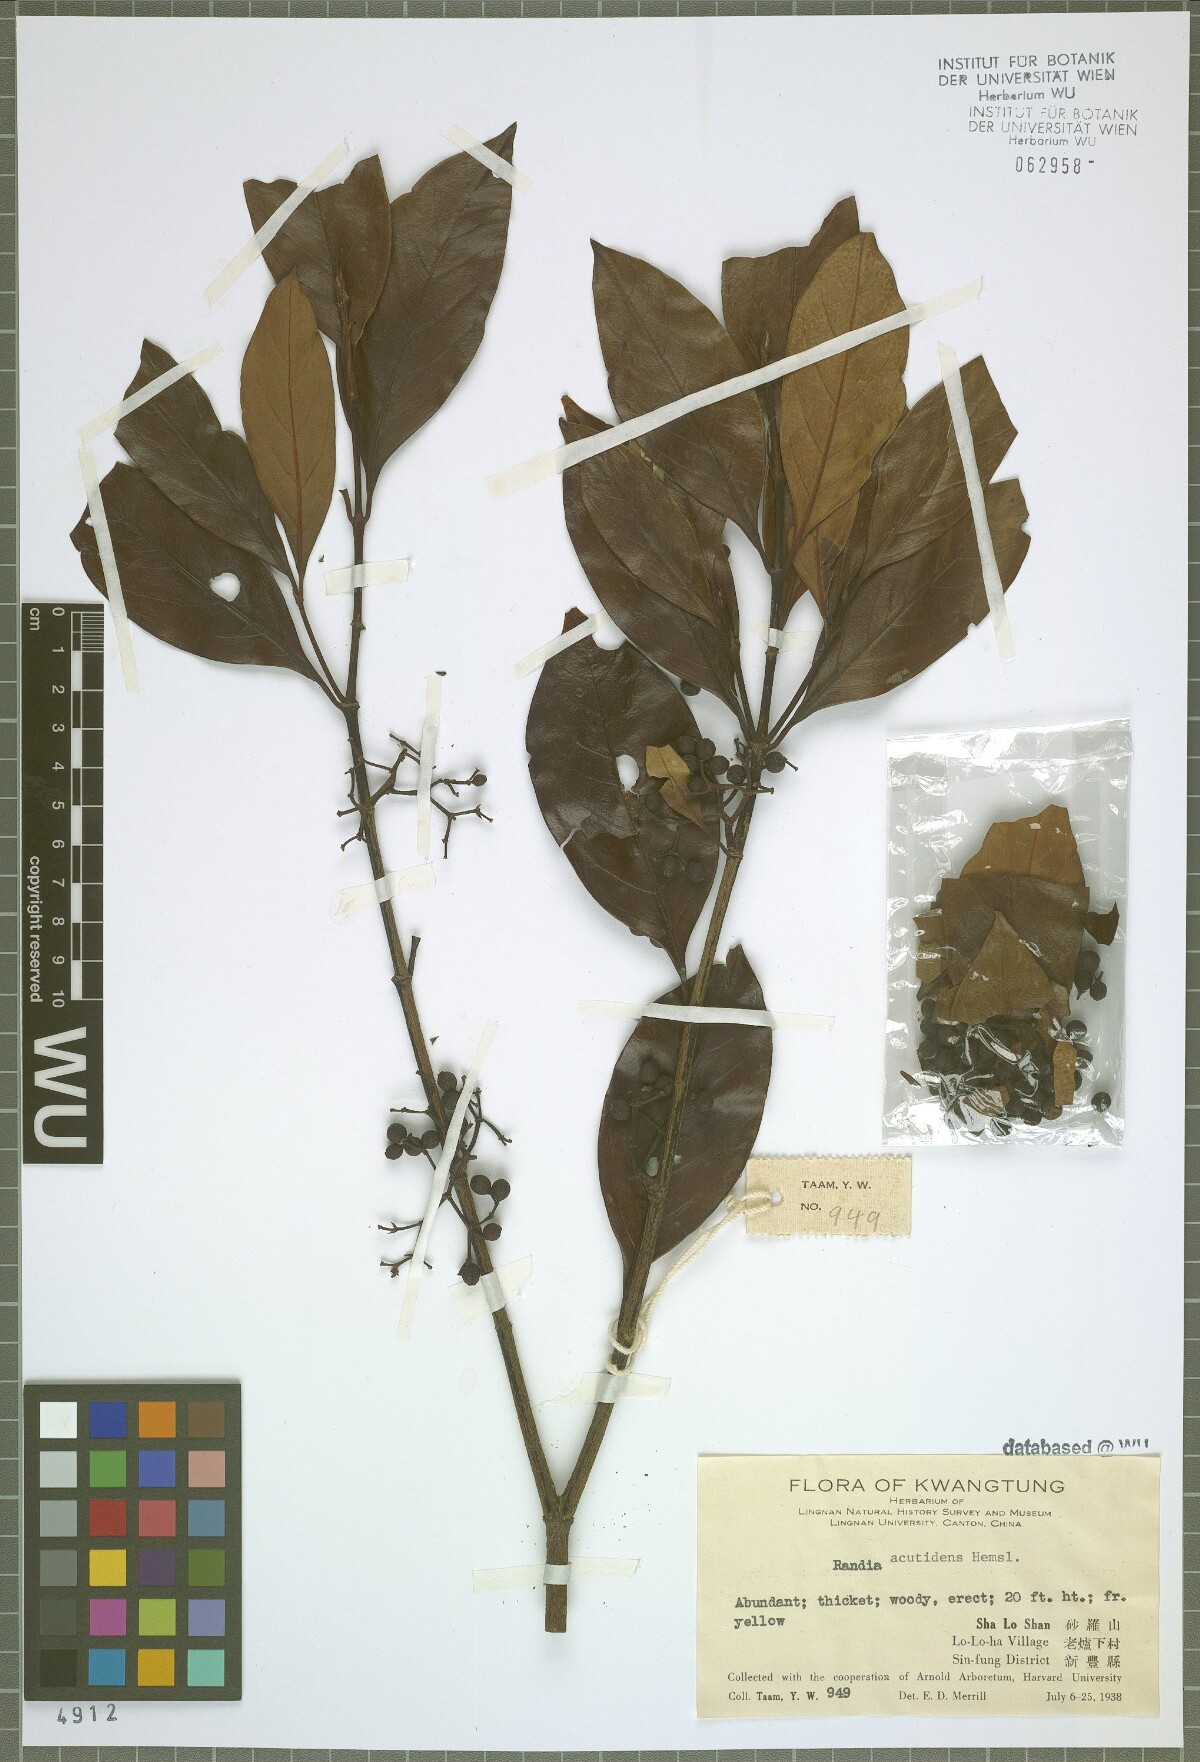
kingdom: Plantae
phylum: Tracheophyta
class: Magnoliopsida
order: Gentianales
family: Rubiaceae
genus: Randia
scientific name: Randia
